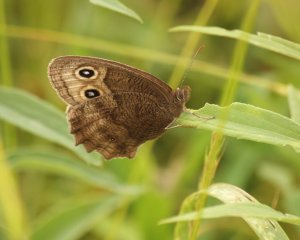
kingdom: Animalia
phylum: Arthropoda
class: Insecta
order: Lepidoptera
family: Nymphalidae
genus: Cercyonis
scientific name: Cercyonis pegala
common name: Common Wood-Nymph
